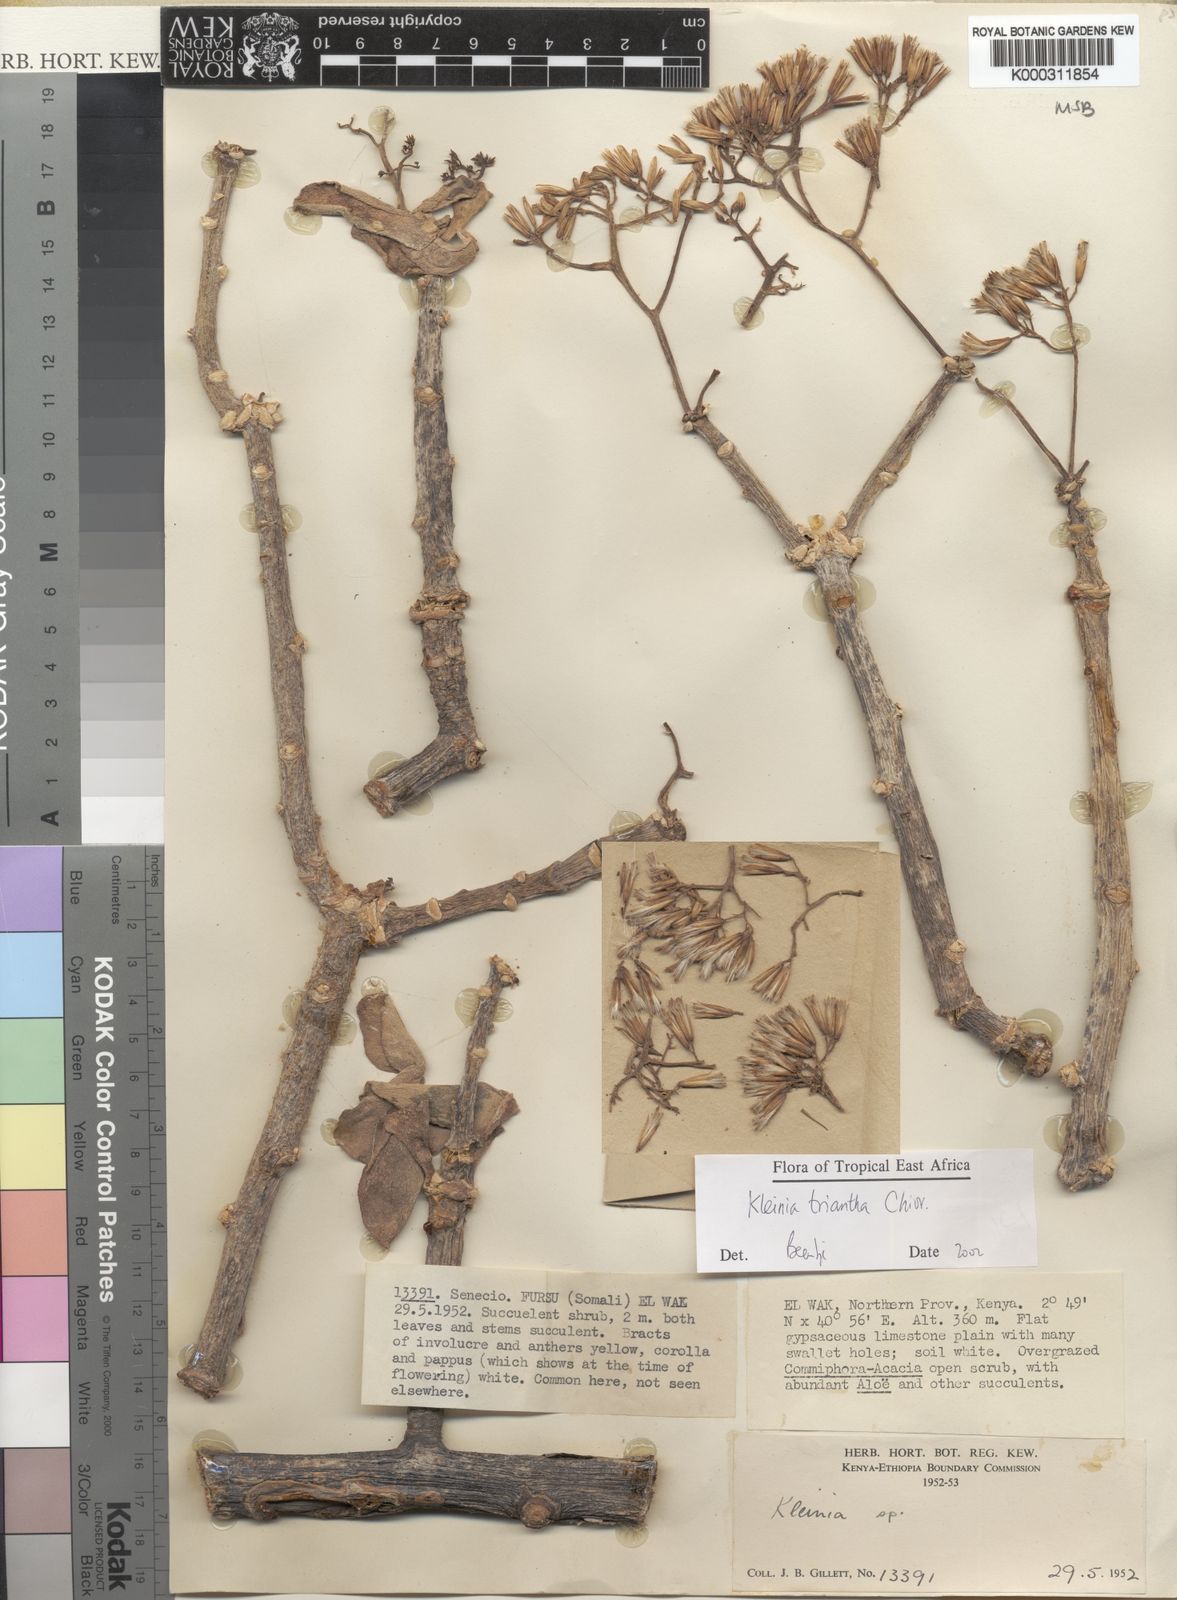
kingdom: Plantae
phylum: Tracheophyta
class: Magnoliopsida
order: Asterales
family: Asteraceae
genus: Kleinia
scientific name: Kleinia triantha
